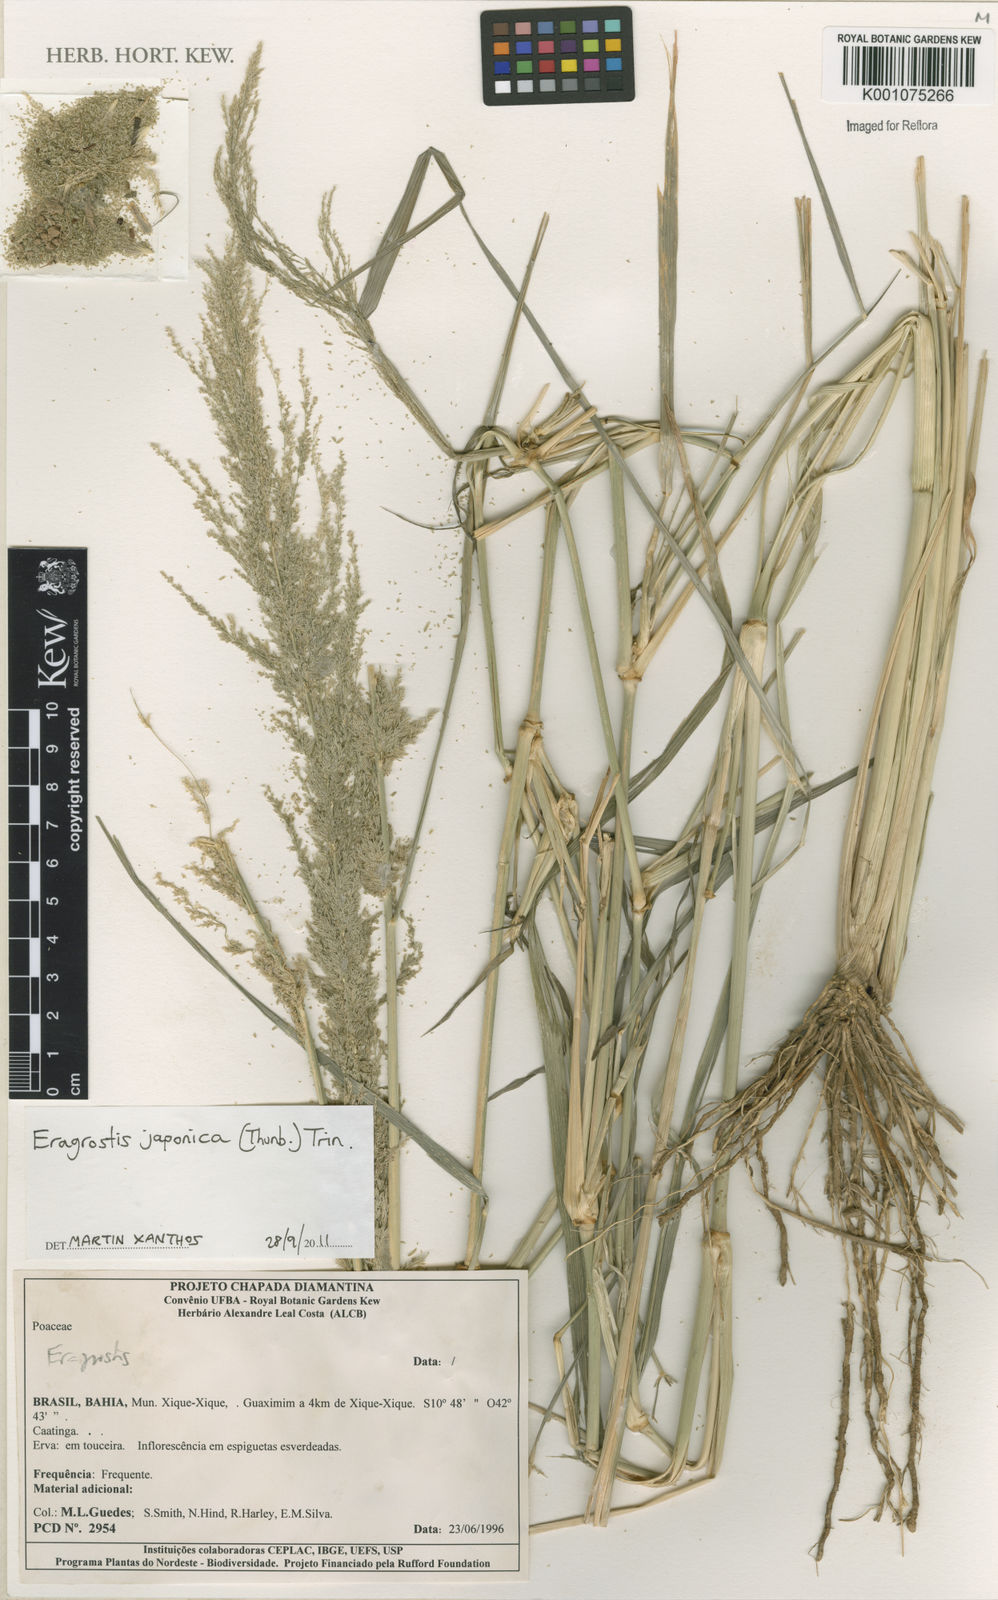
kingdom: Plantae
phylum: Tracheophyta
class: Liliopsida
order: Poales
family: Poaceae
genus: Eragrostis
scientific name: Eragrostis japonica
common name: Pond lovegrass
